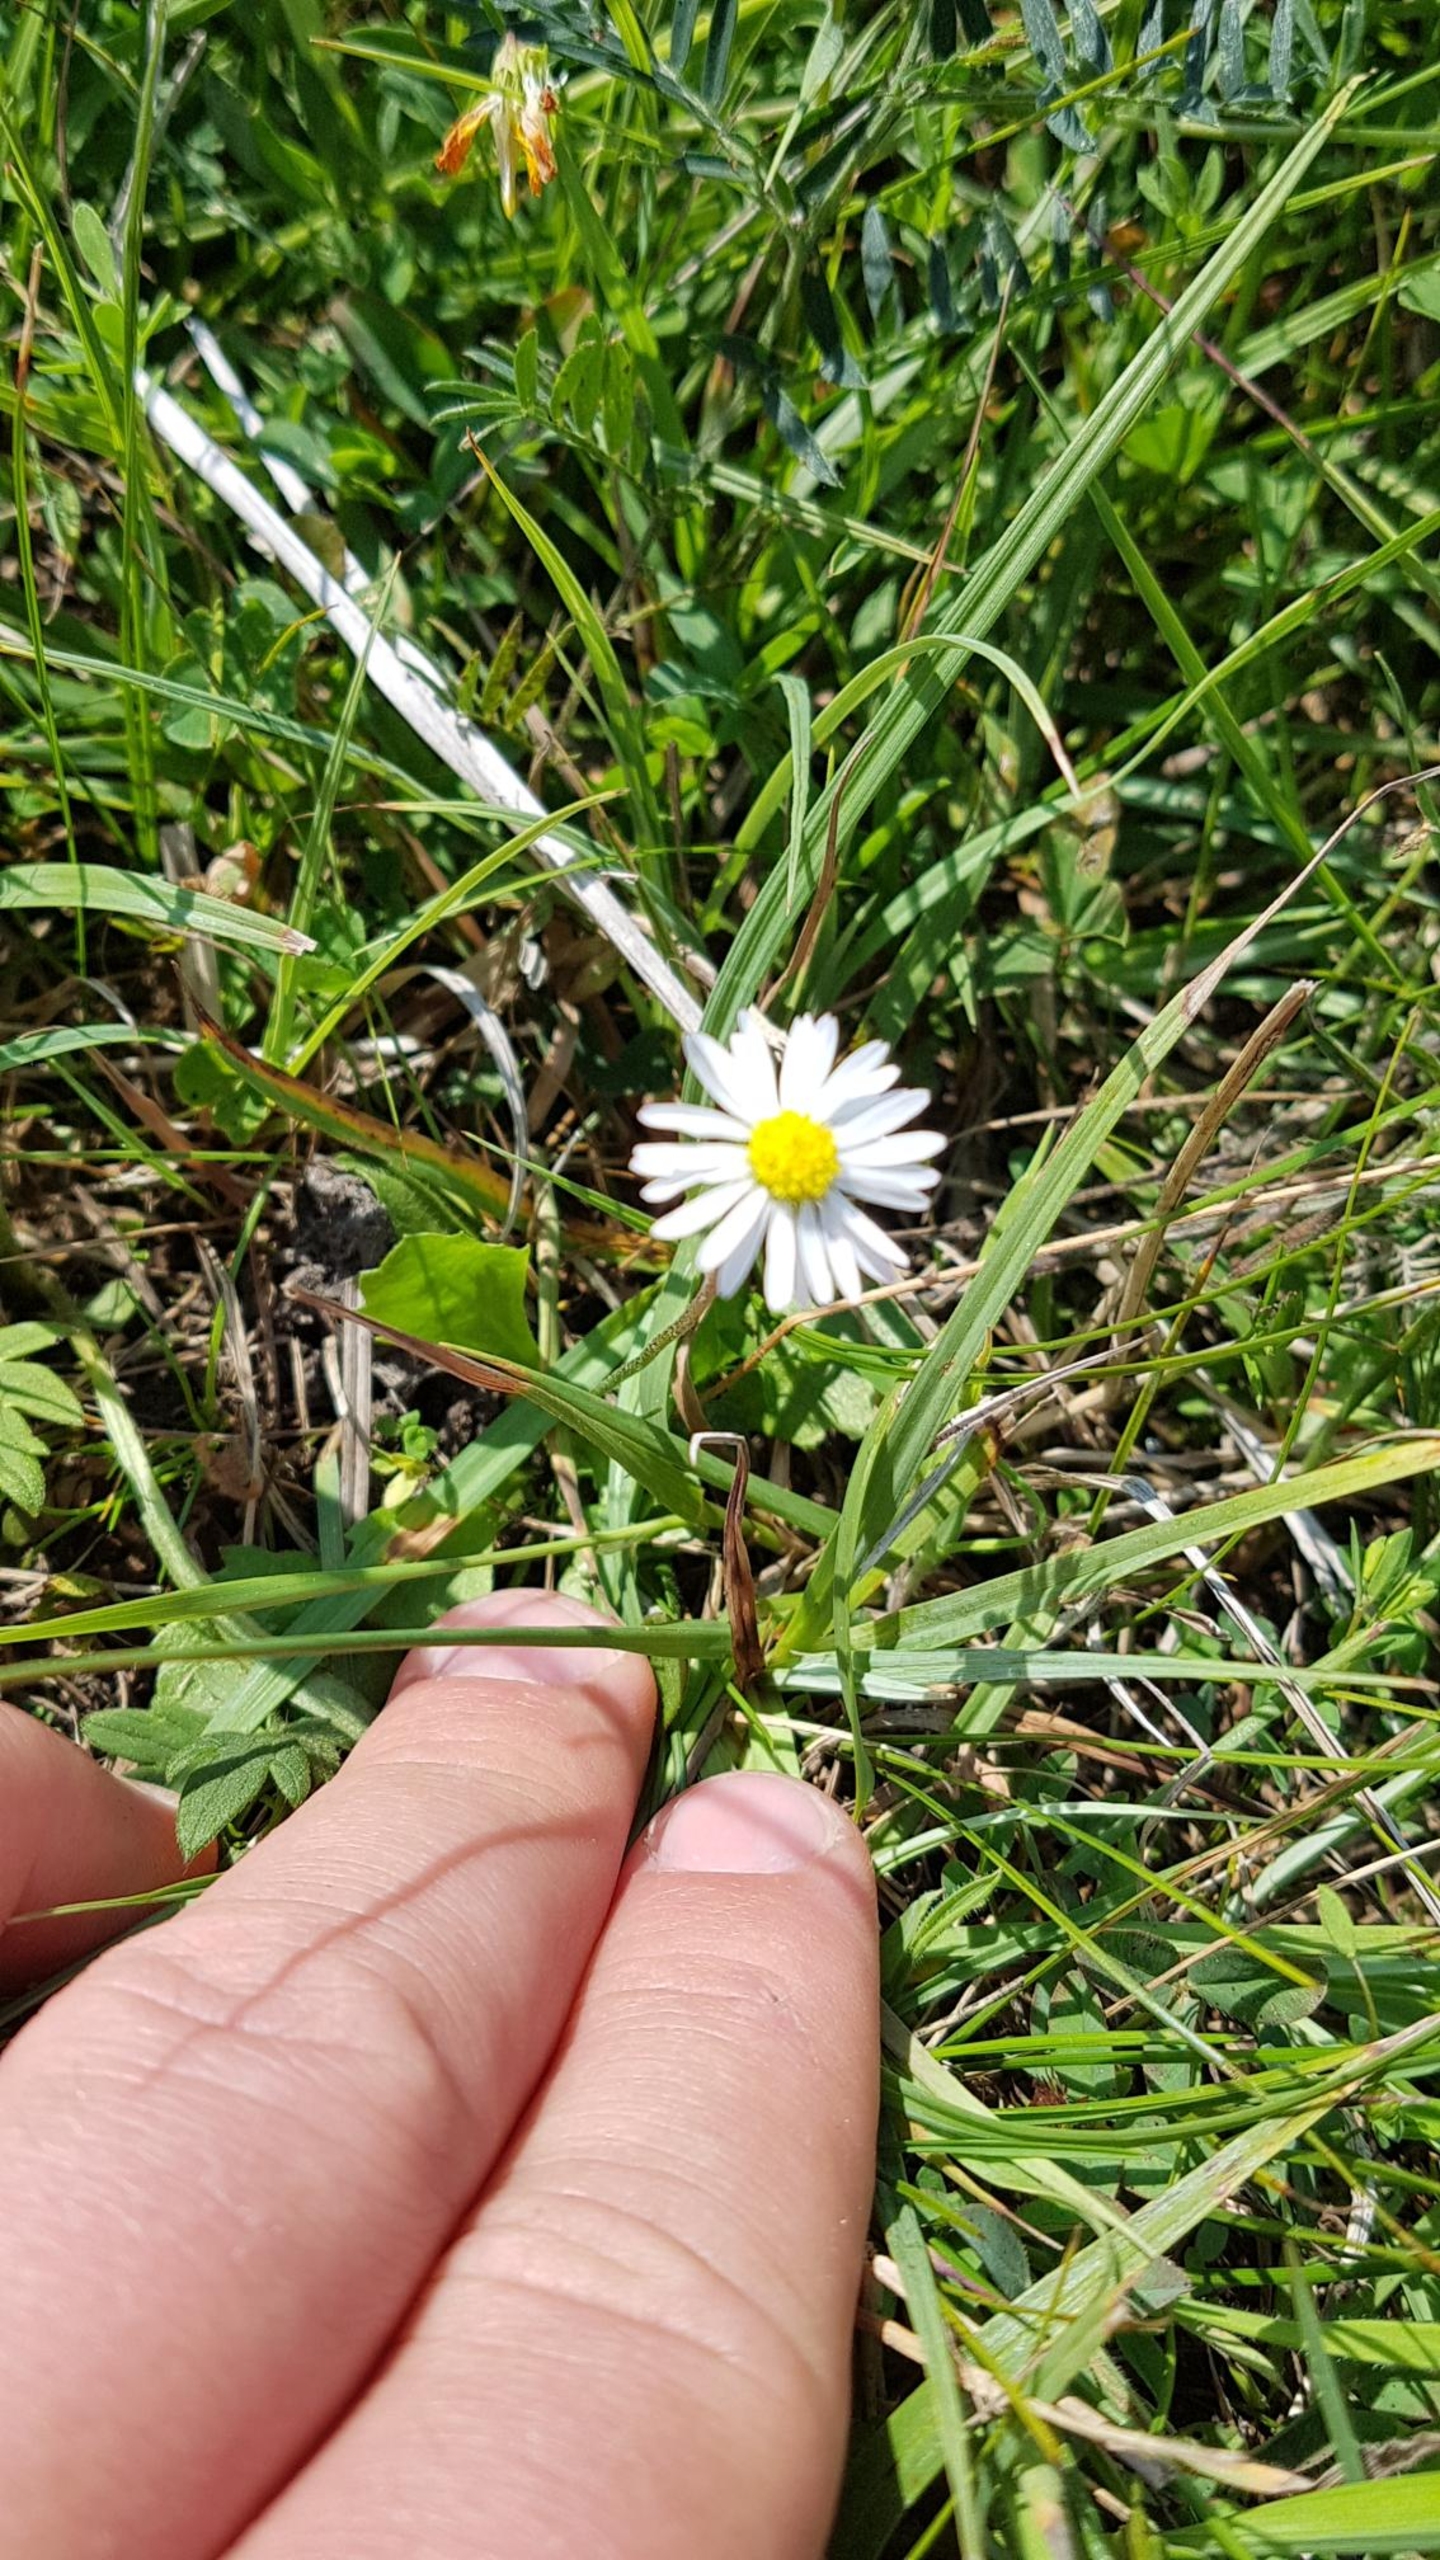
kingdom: Plantae
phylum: Tracheophyta
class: Magnoliopsida
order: Asterales
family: Asteraceae
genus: Bellis
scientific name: Bellis perennis
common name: Tusindfryd
